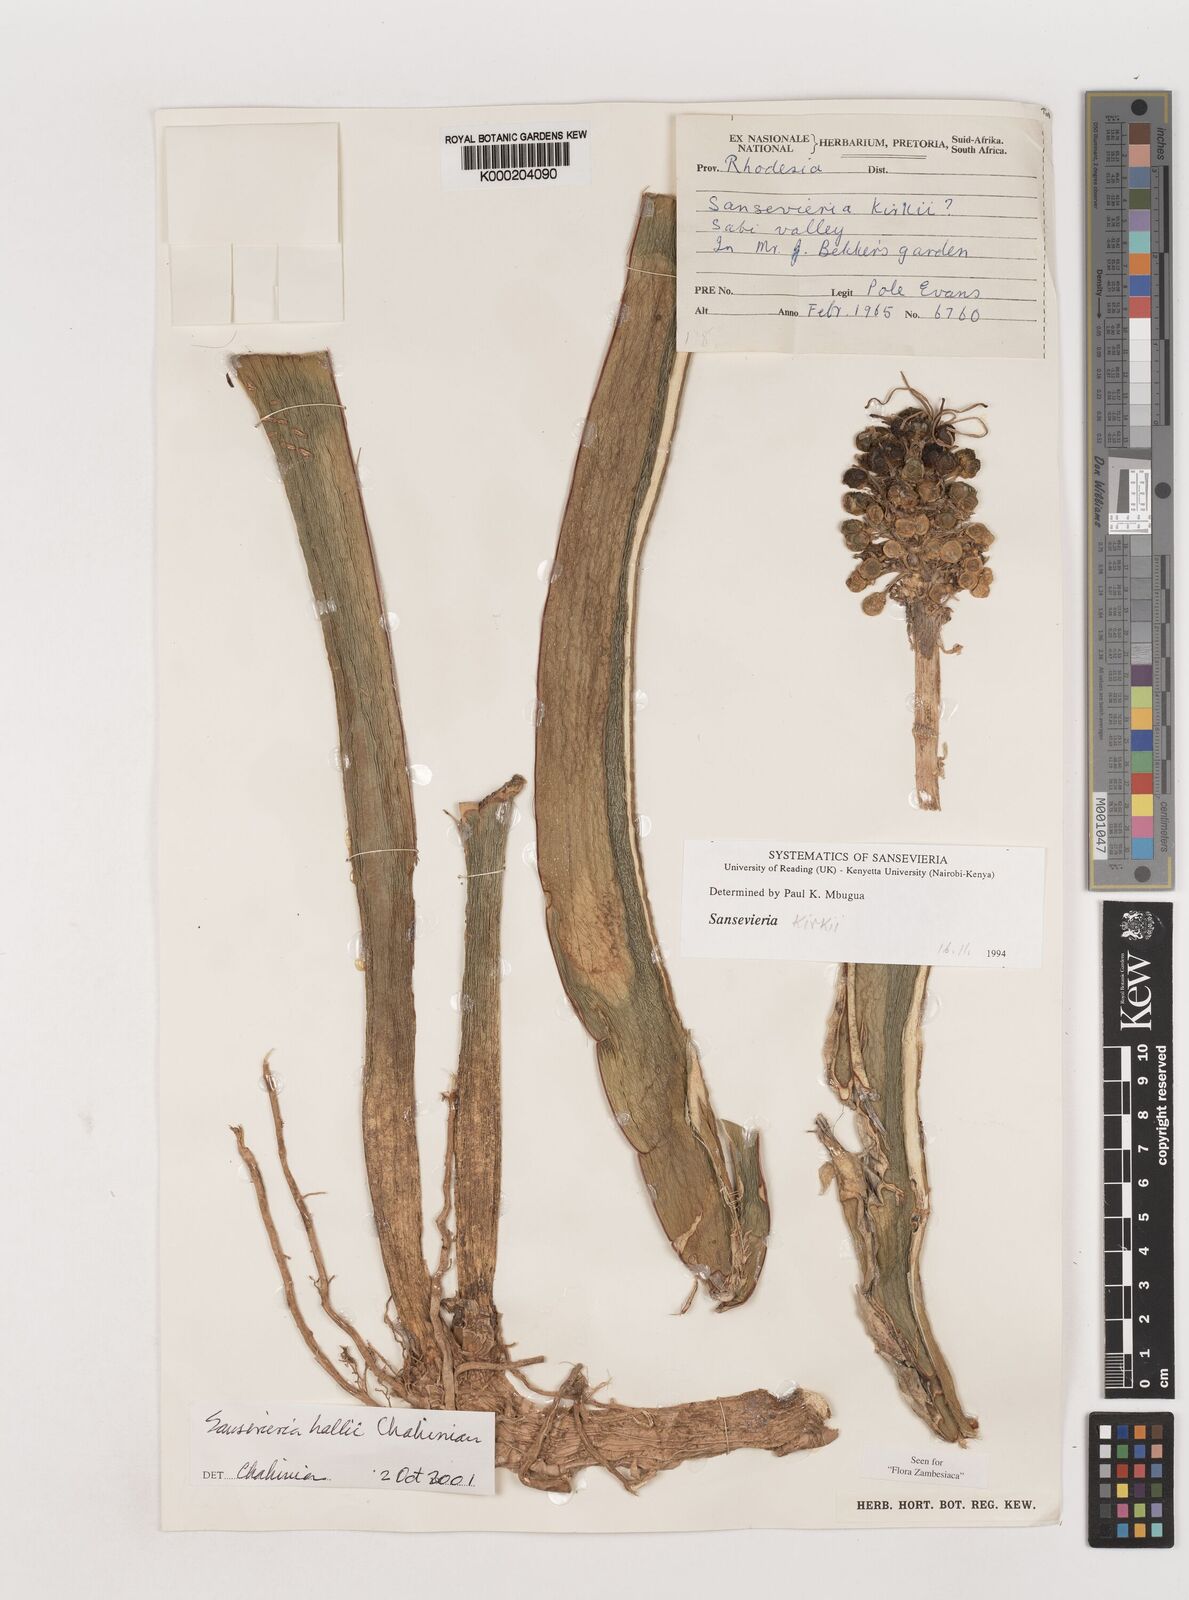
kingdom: Plantae
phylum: Tracheophyta
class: Liliopsida
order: Asparagales
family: Asparagaceae
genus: Dracaena
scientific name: Dracaena hallii
